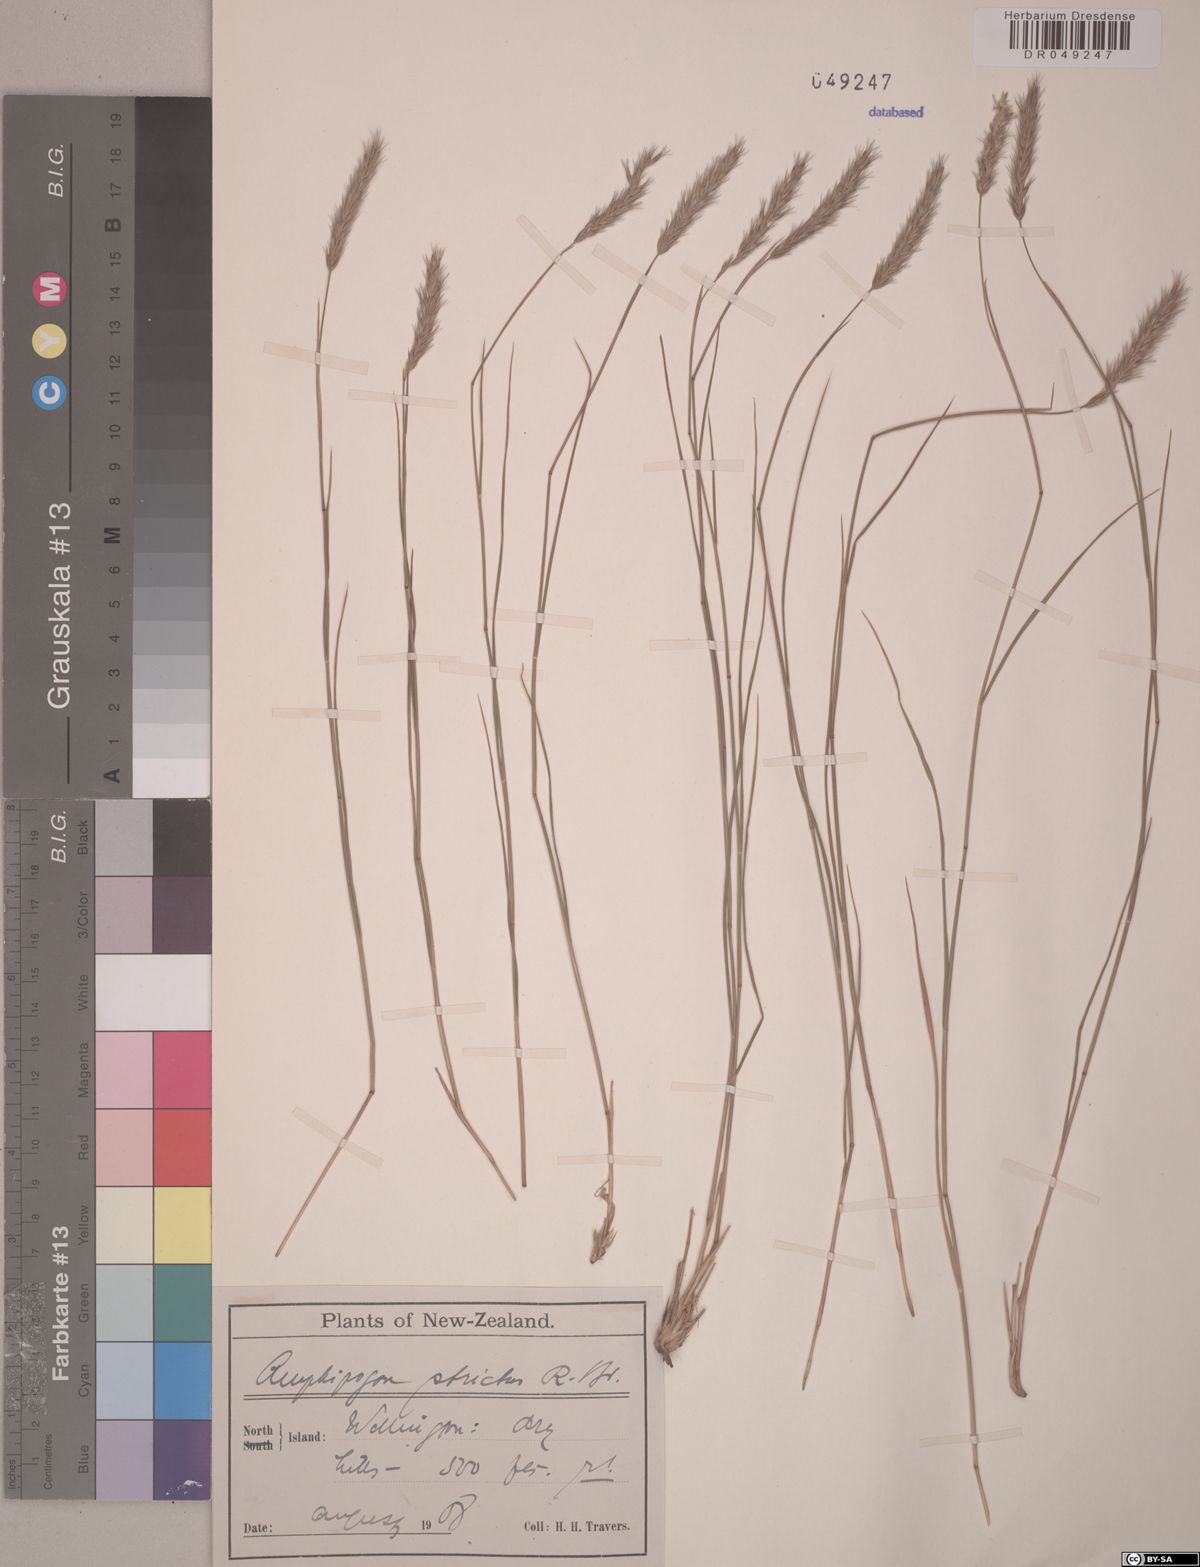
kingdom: Plantae
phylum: Tracheophyta
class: Liliopsida
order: Poales
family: Poaceae
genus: Amphipogon
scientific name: Amphipogon strictus
